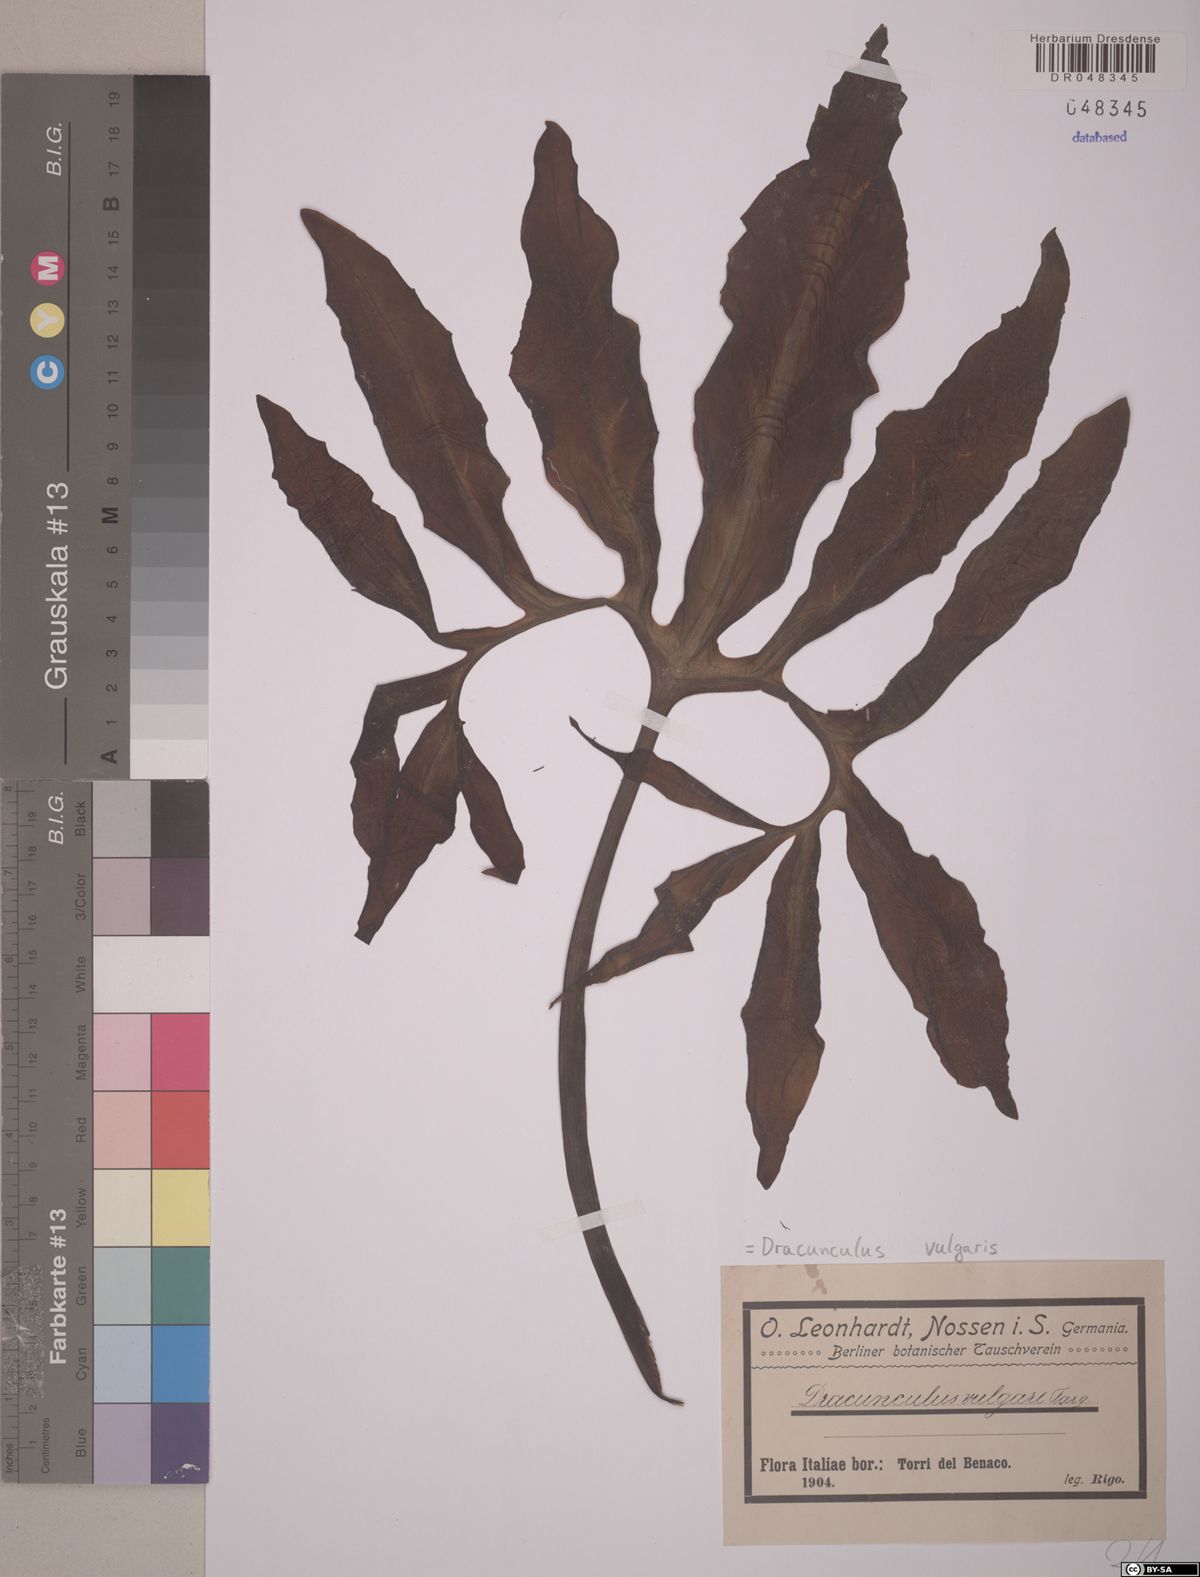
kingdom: Plantae
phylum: Tracheophyta
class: Liliopsida
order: Alismatales
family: Araceae
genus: Dracunculus
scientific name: Dracunculus vulgaris
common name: Dragon arum
